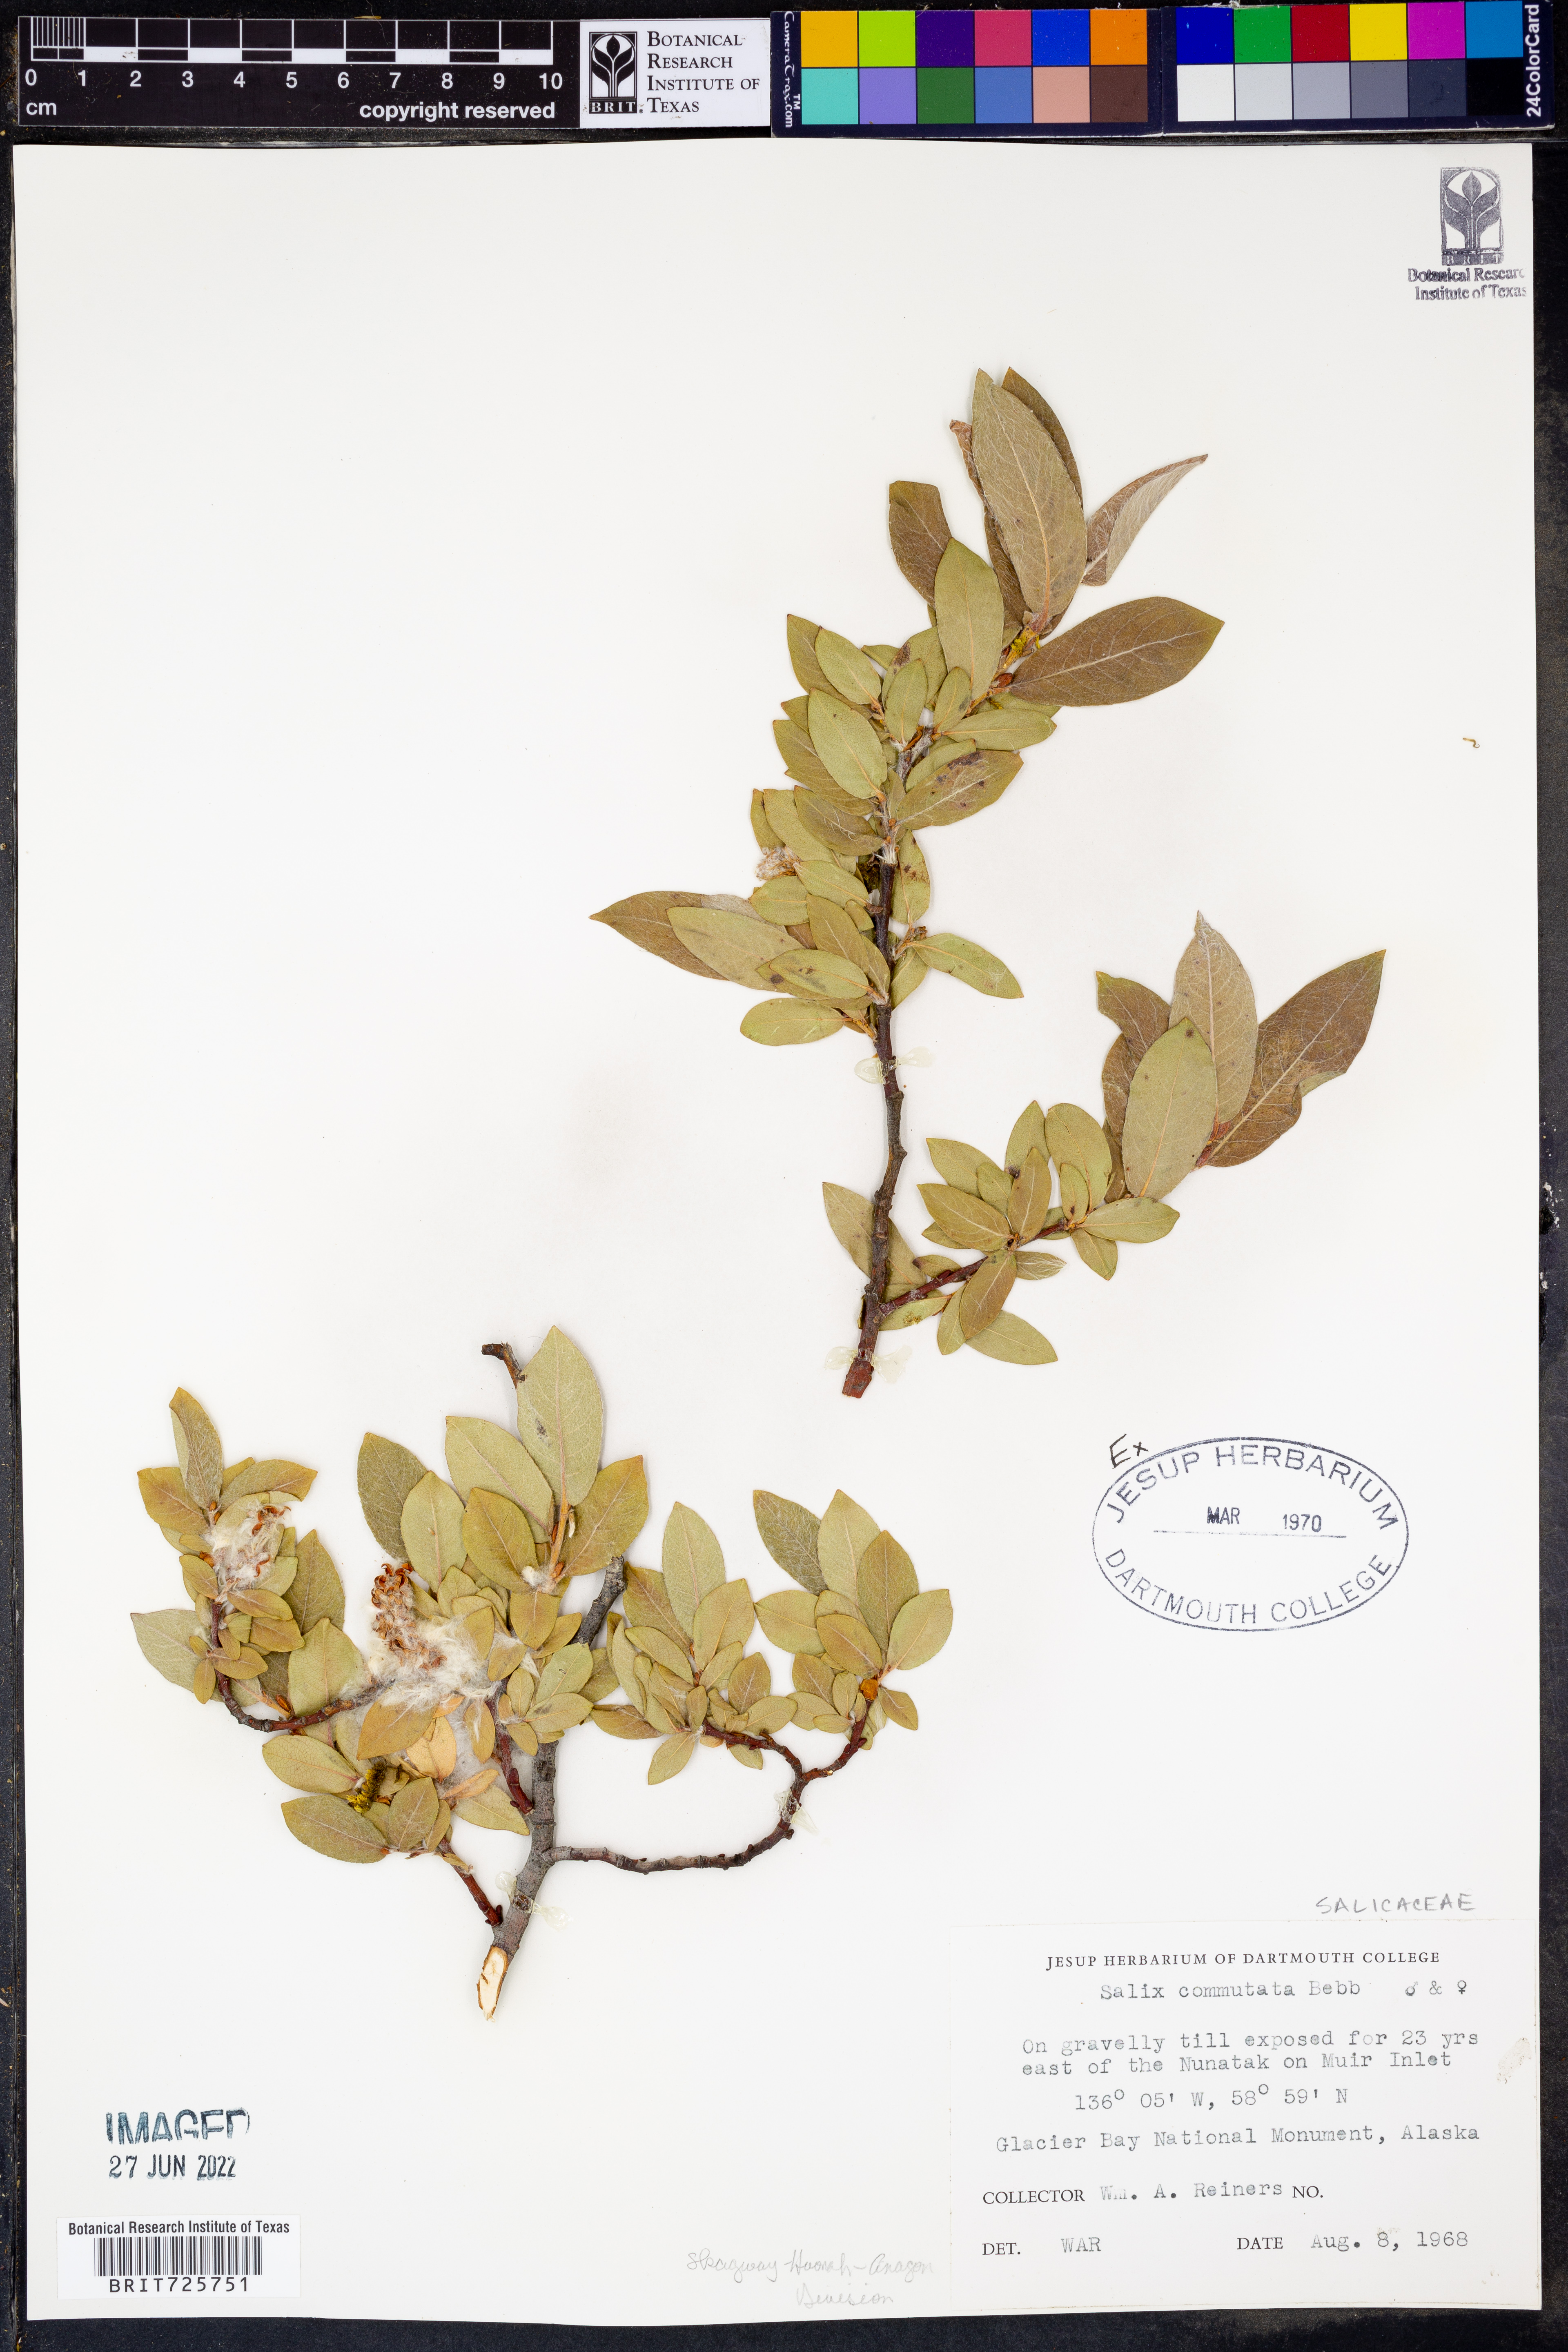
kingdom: Plantae
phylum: Tracheophyta
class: Magnoliopsida
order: Malpighiales
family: Salicaceae
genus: Salix
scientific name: Salix commutata
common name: Under-green willow
